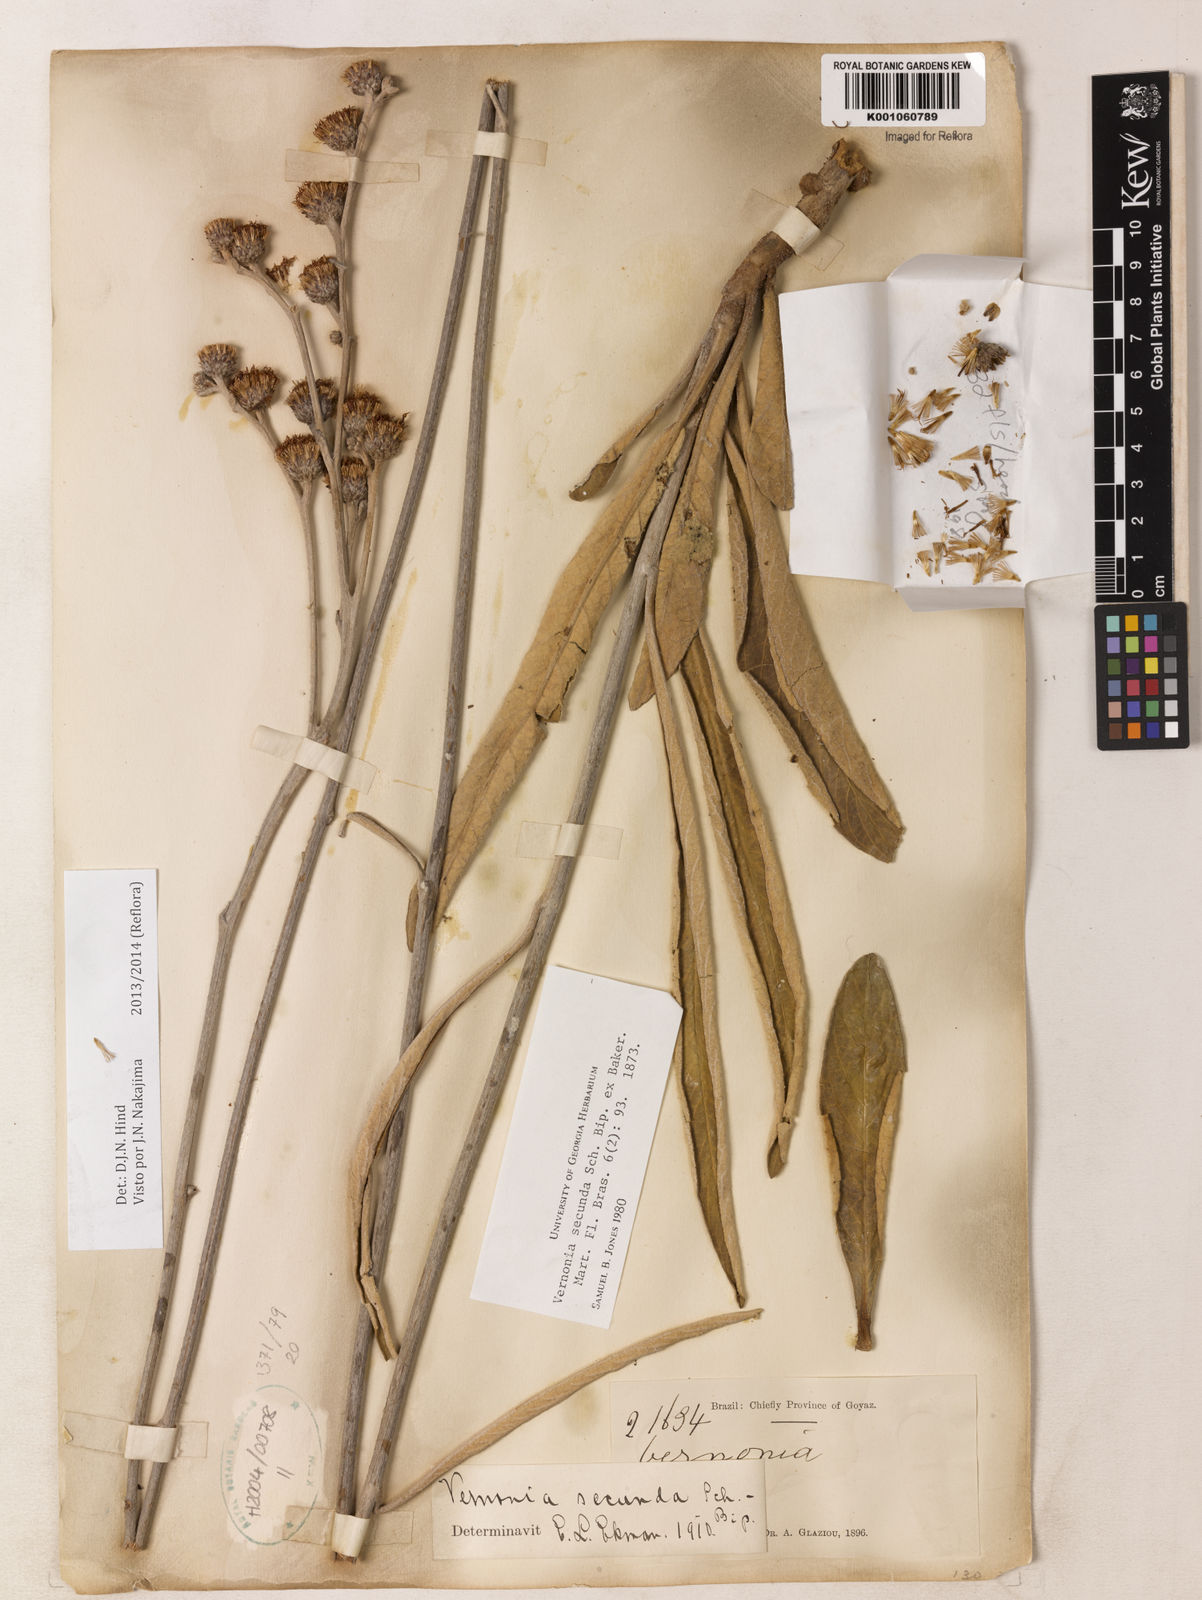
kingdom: Plantae
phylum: Tracheophyta
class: Magnoliopsida
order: Asterales
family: Asteraceae
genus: Lessingianthus
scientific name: Lessingianthus secundus
